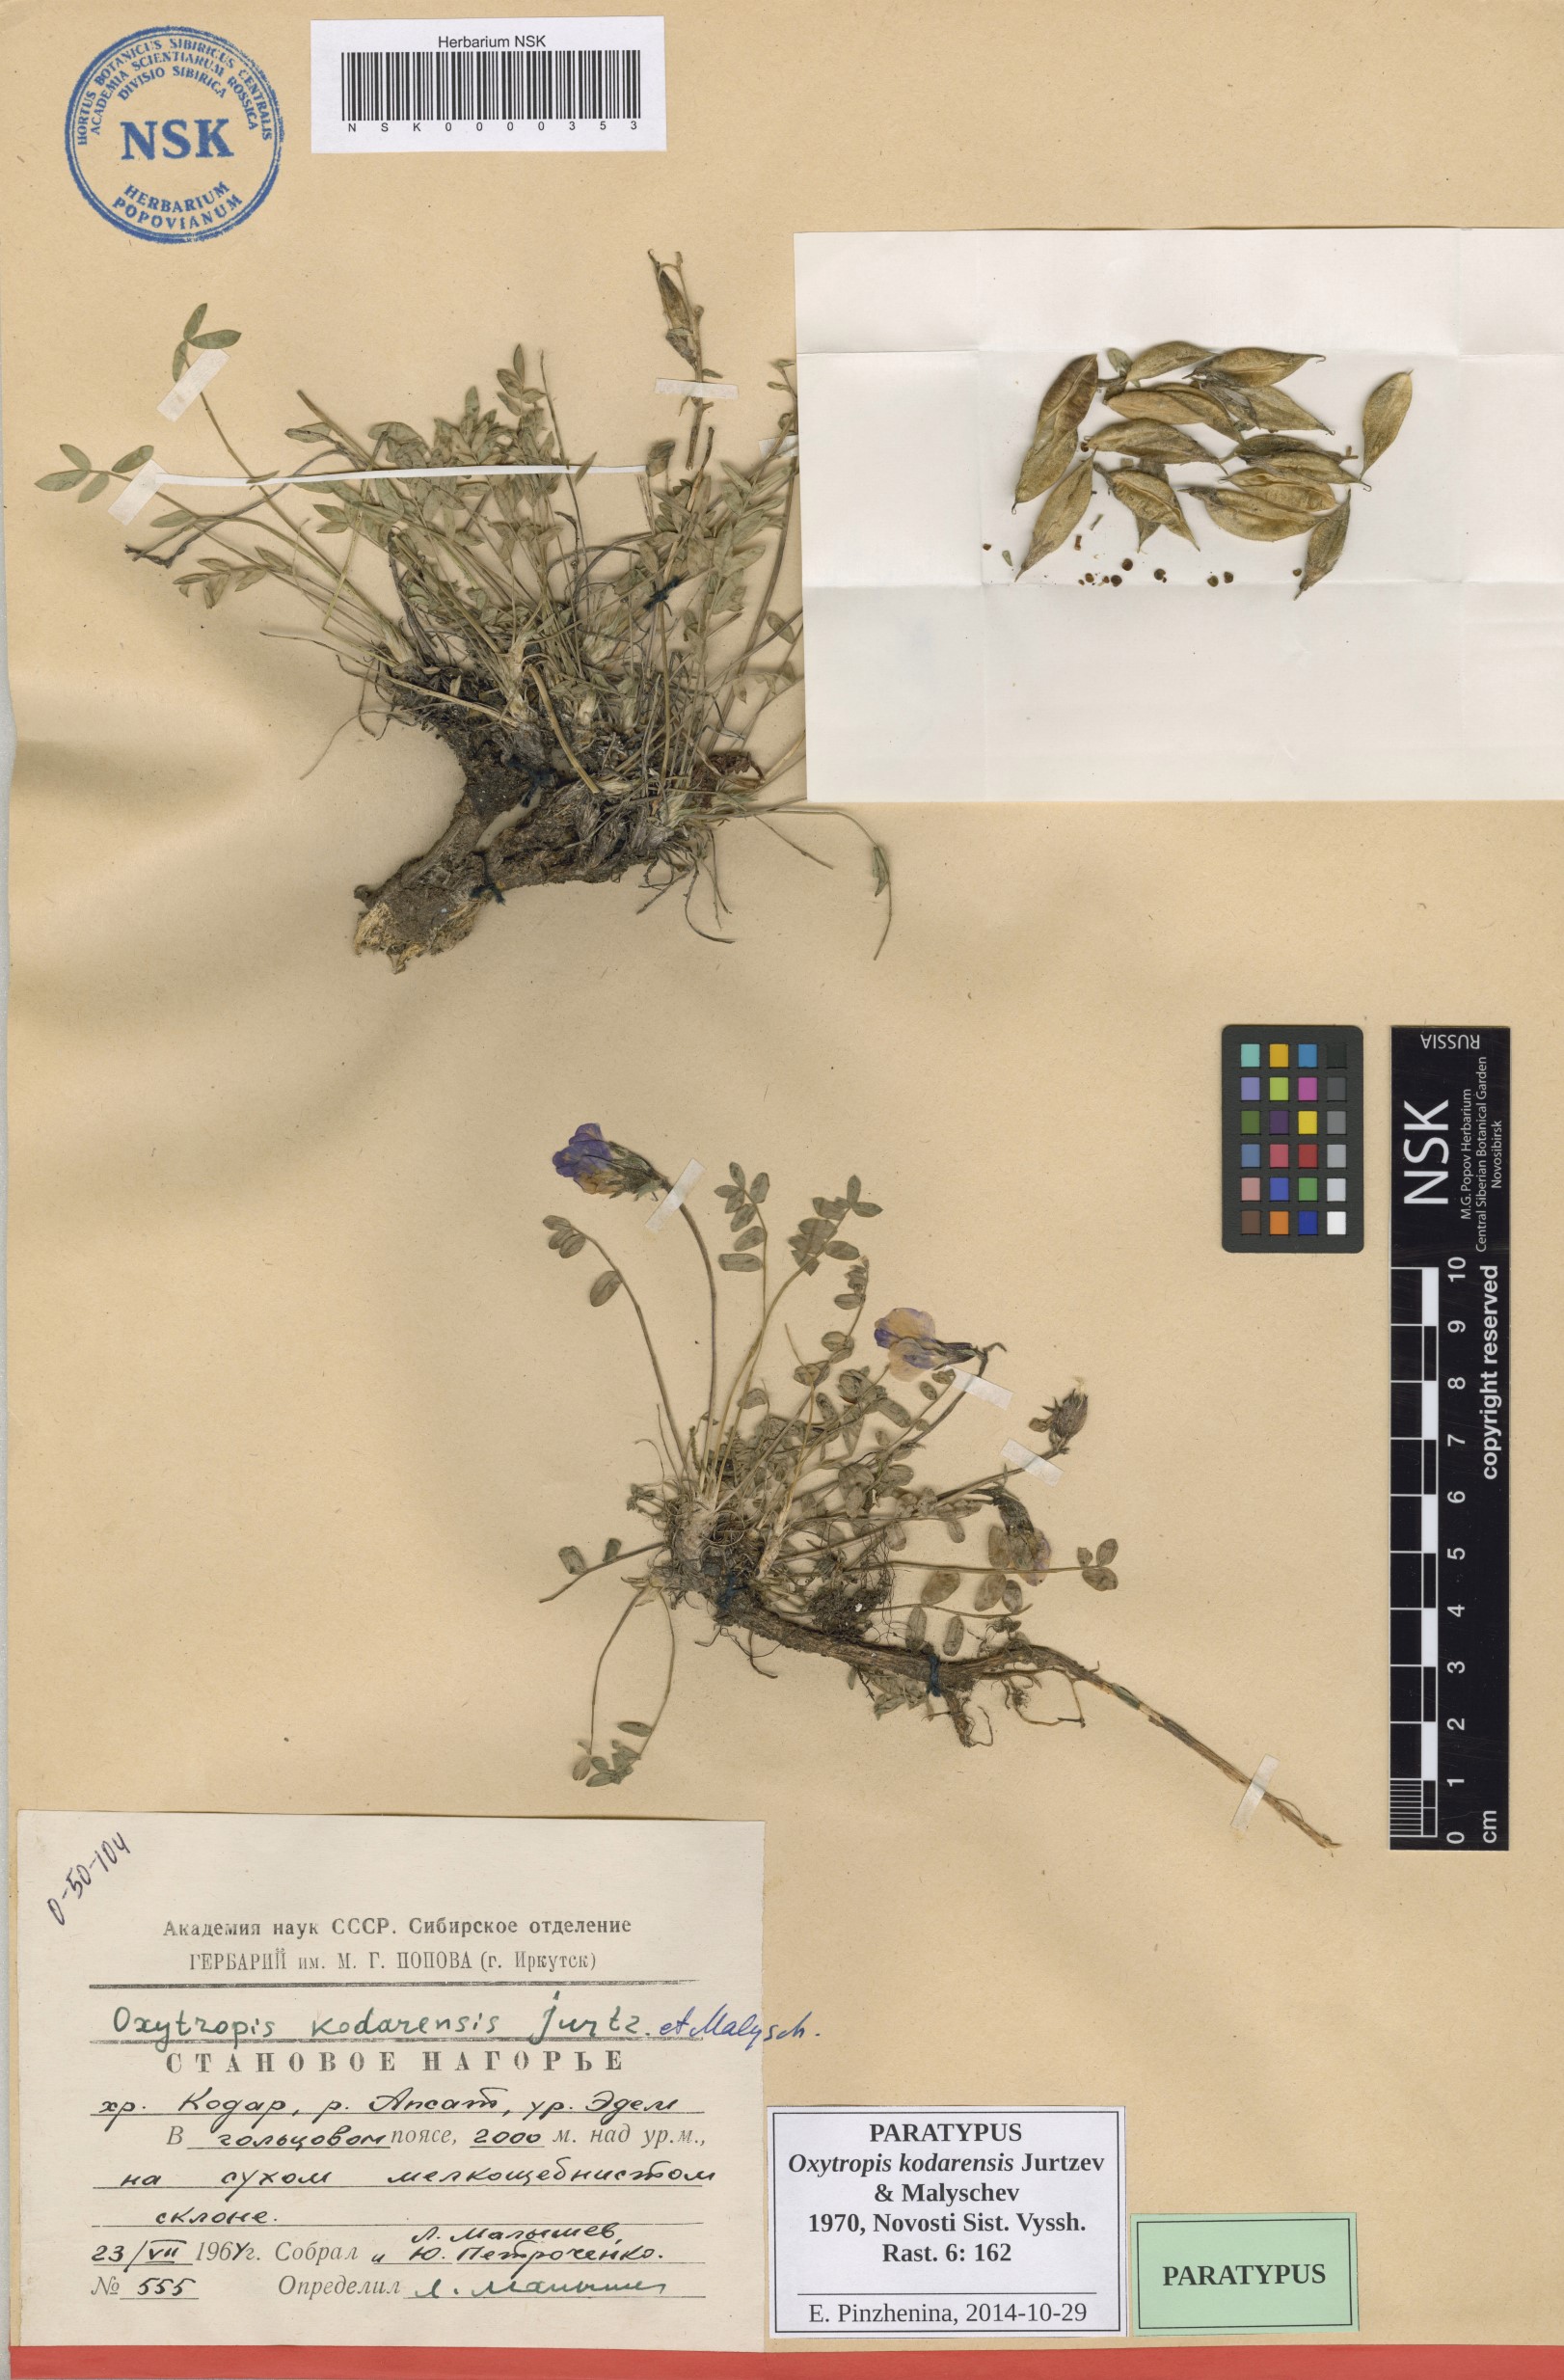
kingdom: Plantae
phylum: Tracheophyta
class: Magnoliopsida
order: Fabales
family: Fabaceae
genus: Oxytropis
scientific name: Oxytropis kodarensis
